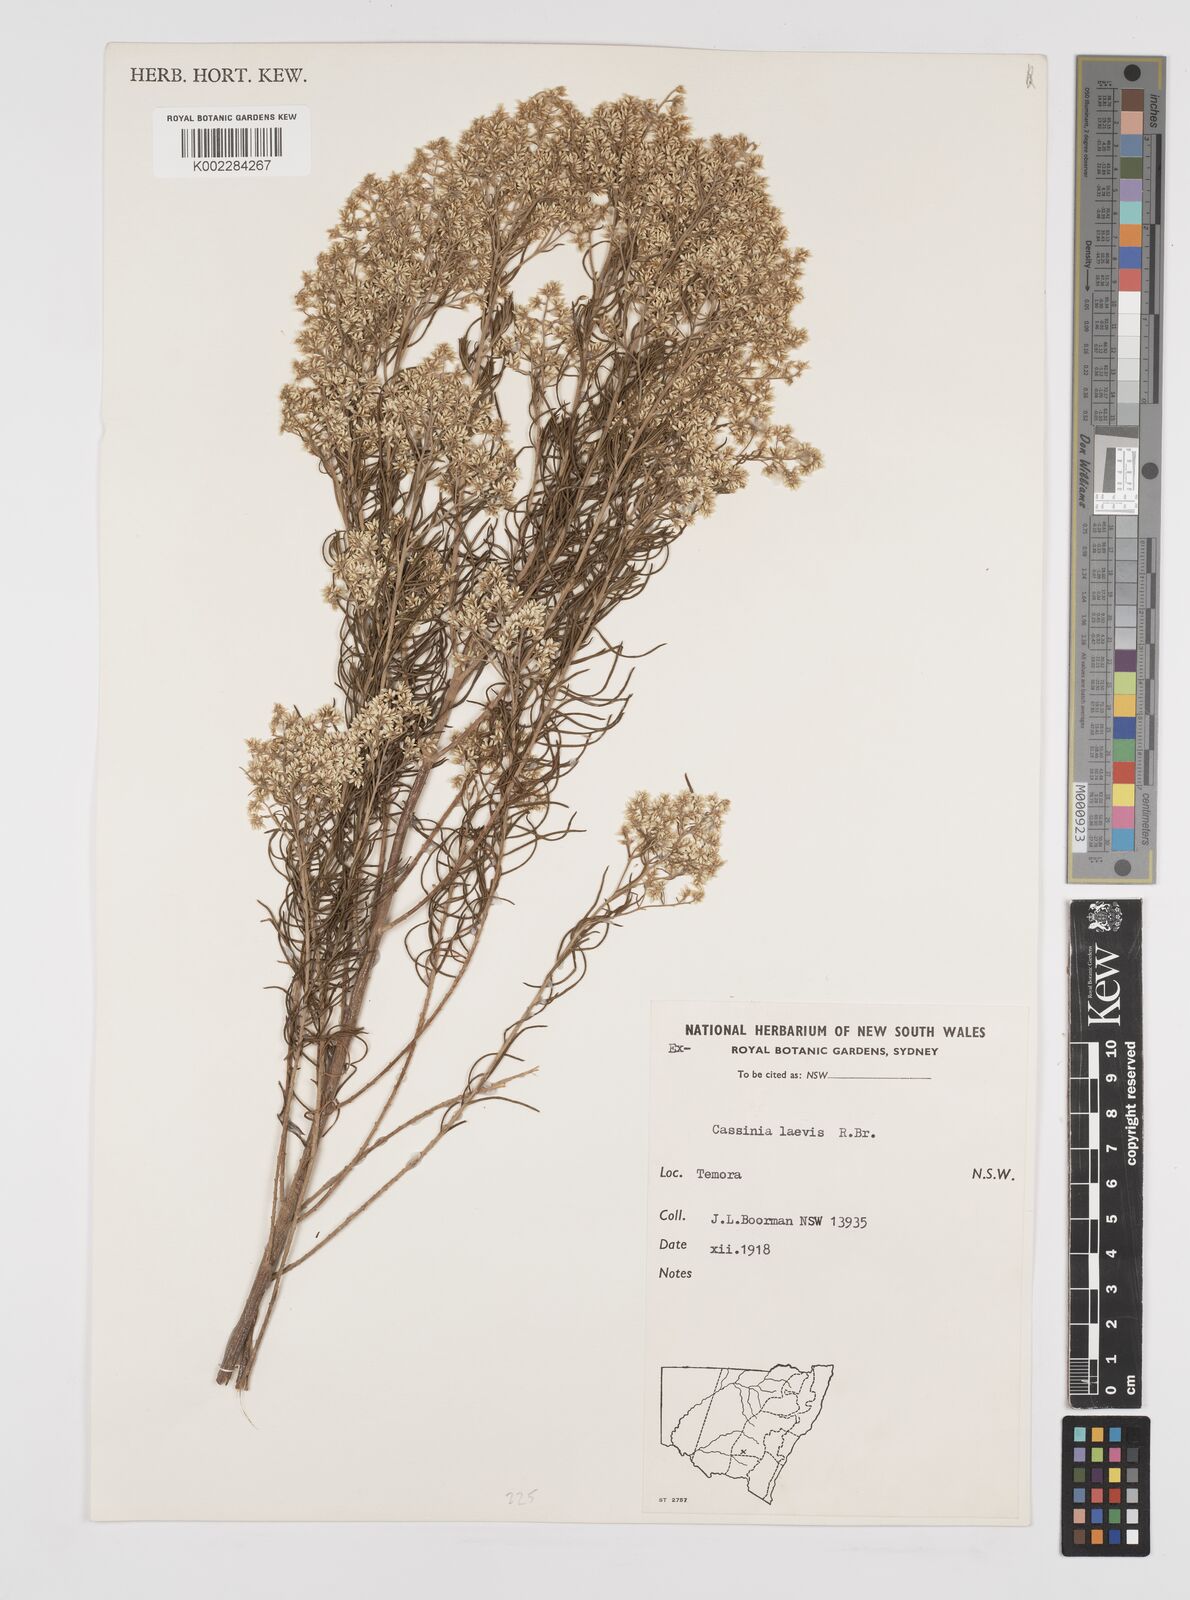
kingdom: Plantae
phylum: Tracheophyta
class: Magnoliopsida
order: Asterales
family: Asteraceae
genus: Cassinia
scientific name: Cassinia laevis
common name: Coughbush
